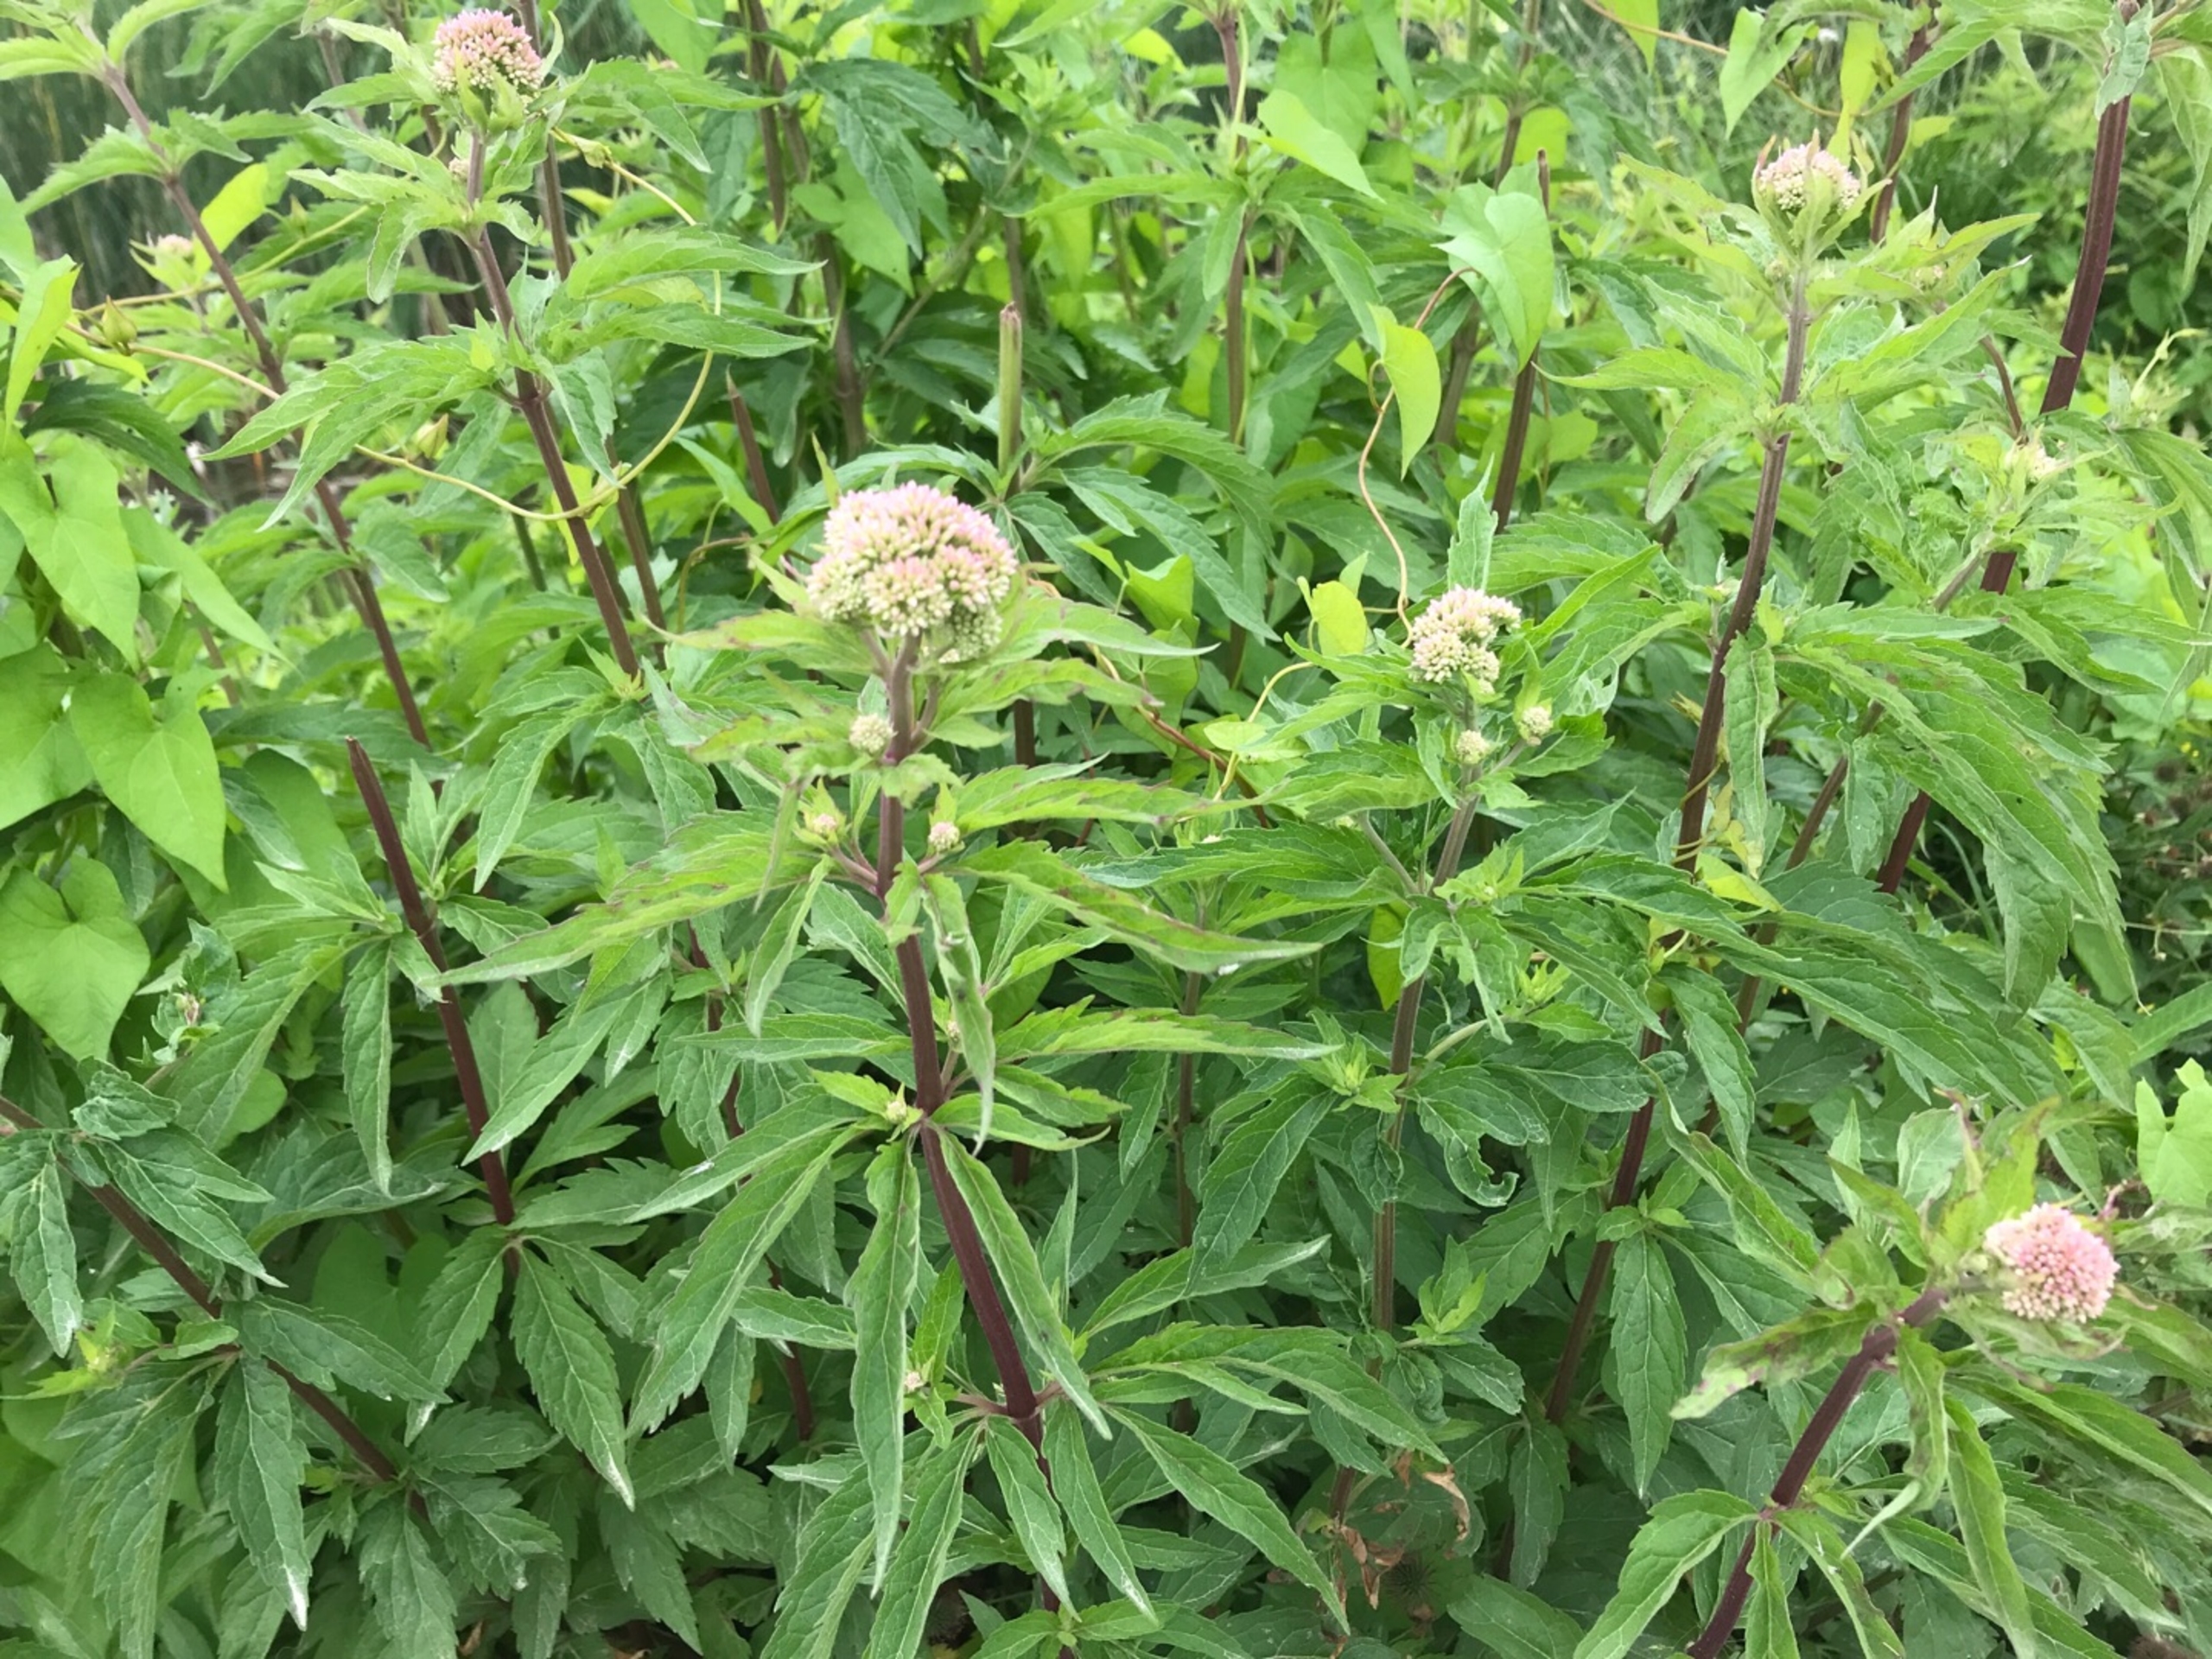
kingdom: Plantae
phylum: Tracheophyta
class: Magnoliopsida
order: Asterales
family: Asteraceae
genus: Eupatorium
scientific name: Eupatorium cannabinum
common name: Hjortetrøst
